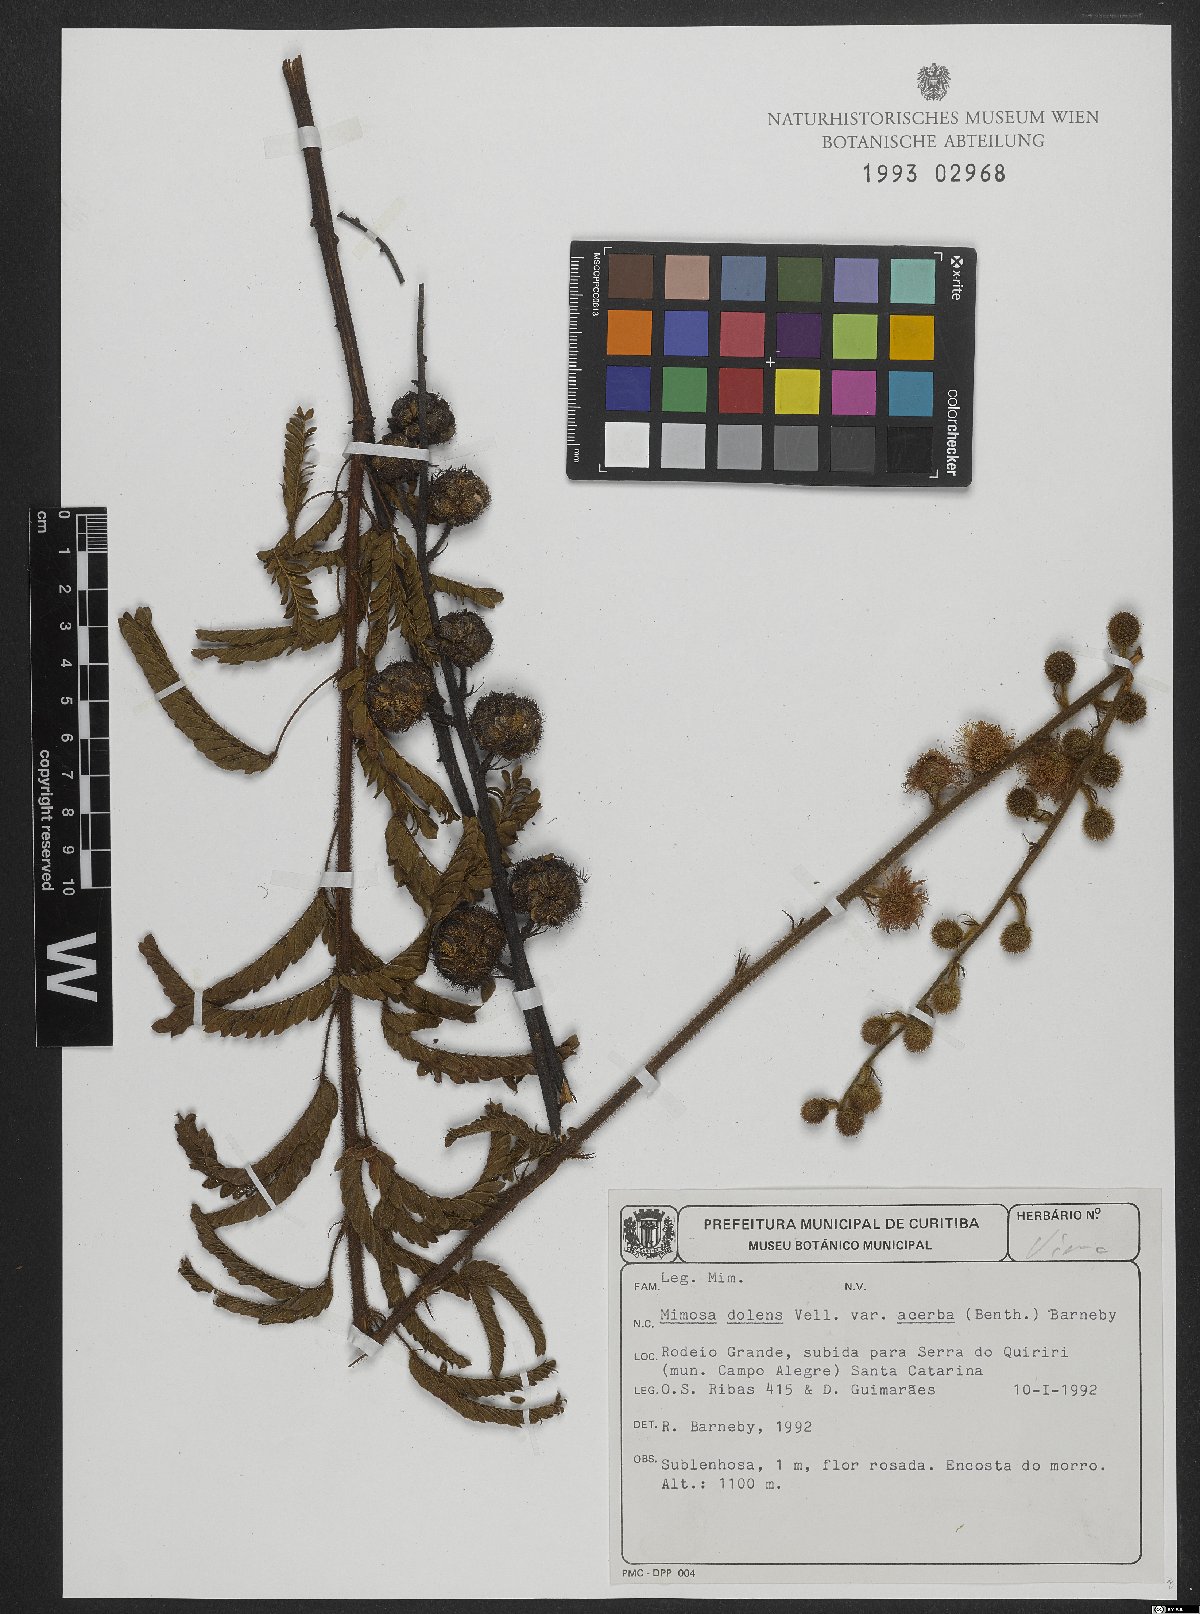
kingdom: Plantae
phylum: Tracheophyta
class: Magnoliopsida
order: Fabales
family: Fabaceae
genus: Mimosa
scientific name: Mimosa dolens
